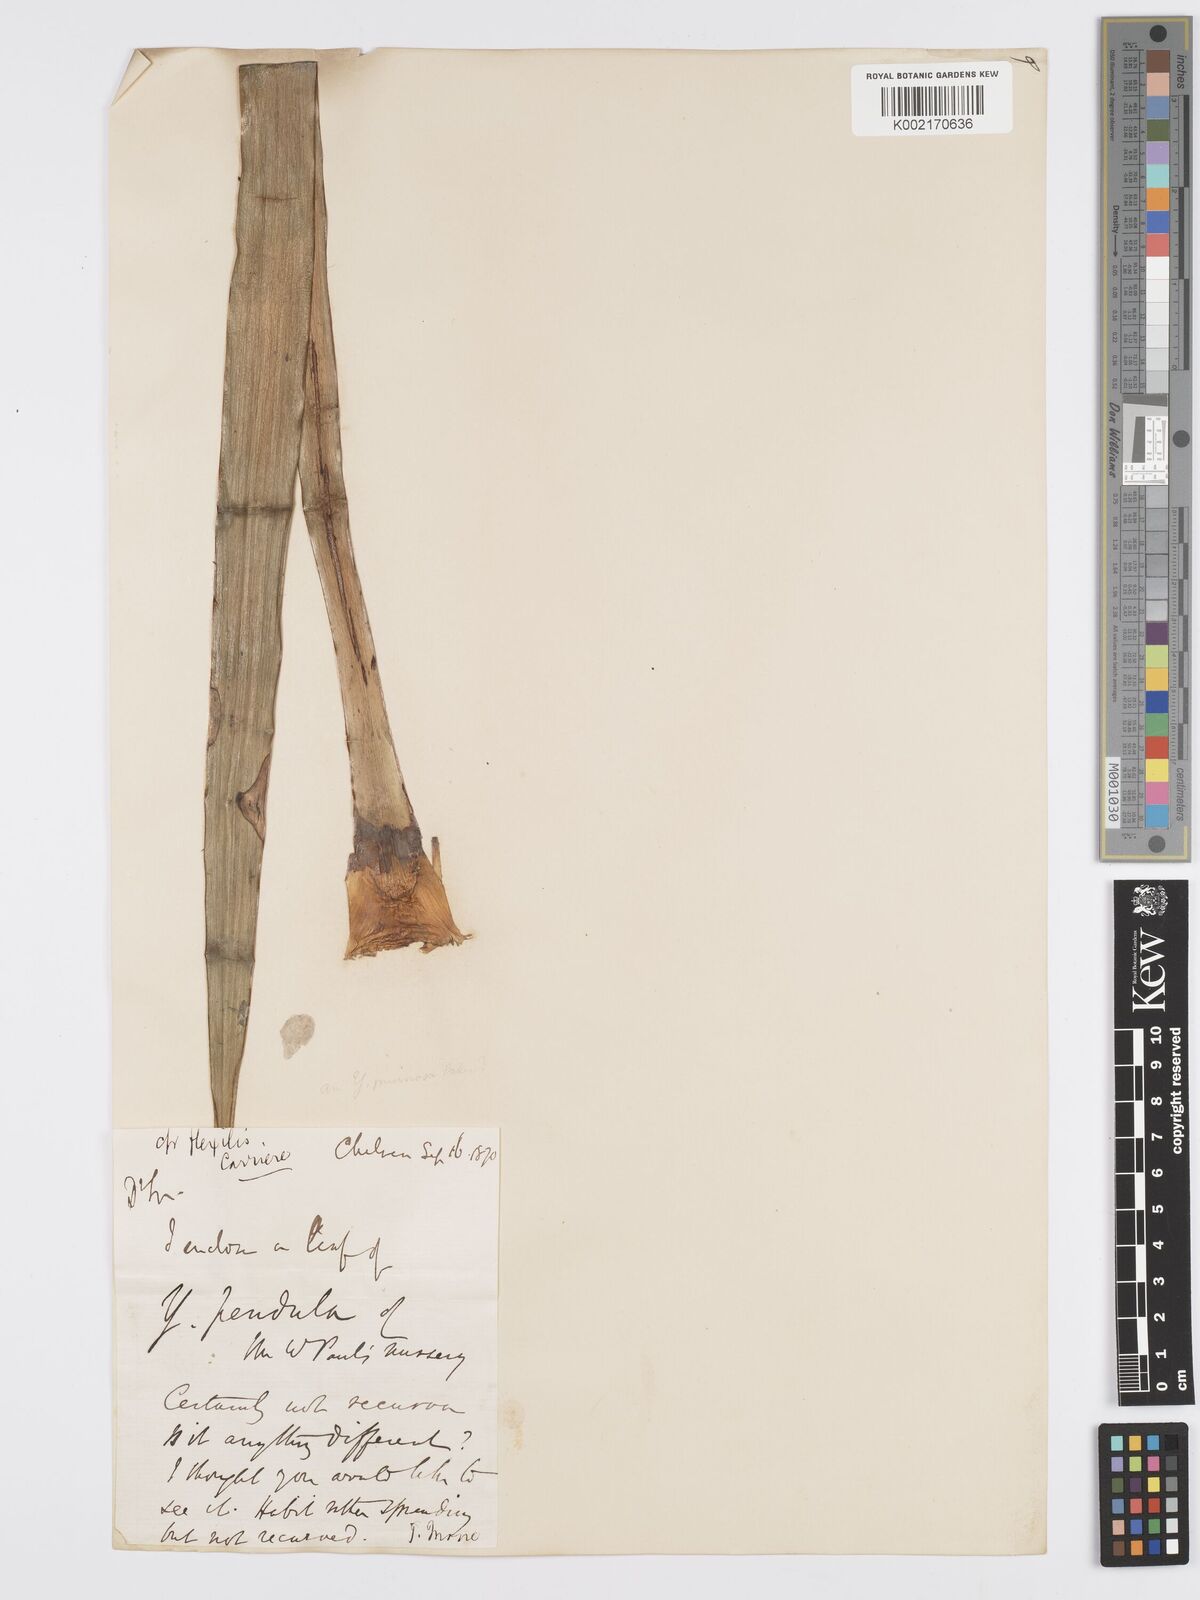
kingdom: Plantae
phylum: Tracheophyta
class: Liliopsida
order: Asparagales
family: Asparagaceae
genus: Yucca
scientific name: Yucca gloriosa
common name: Spanish-dagger
